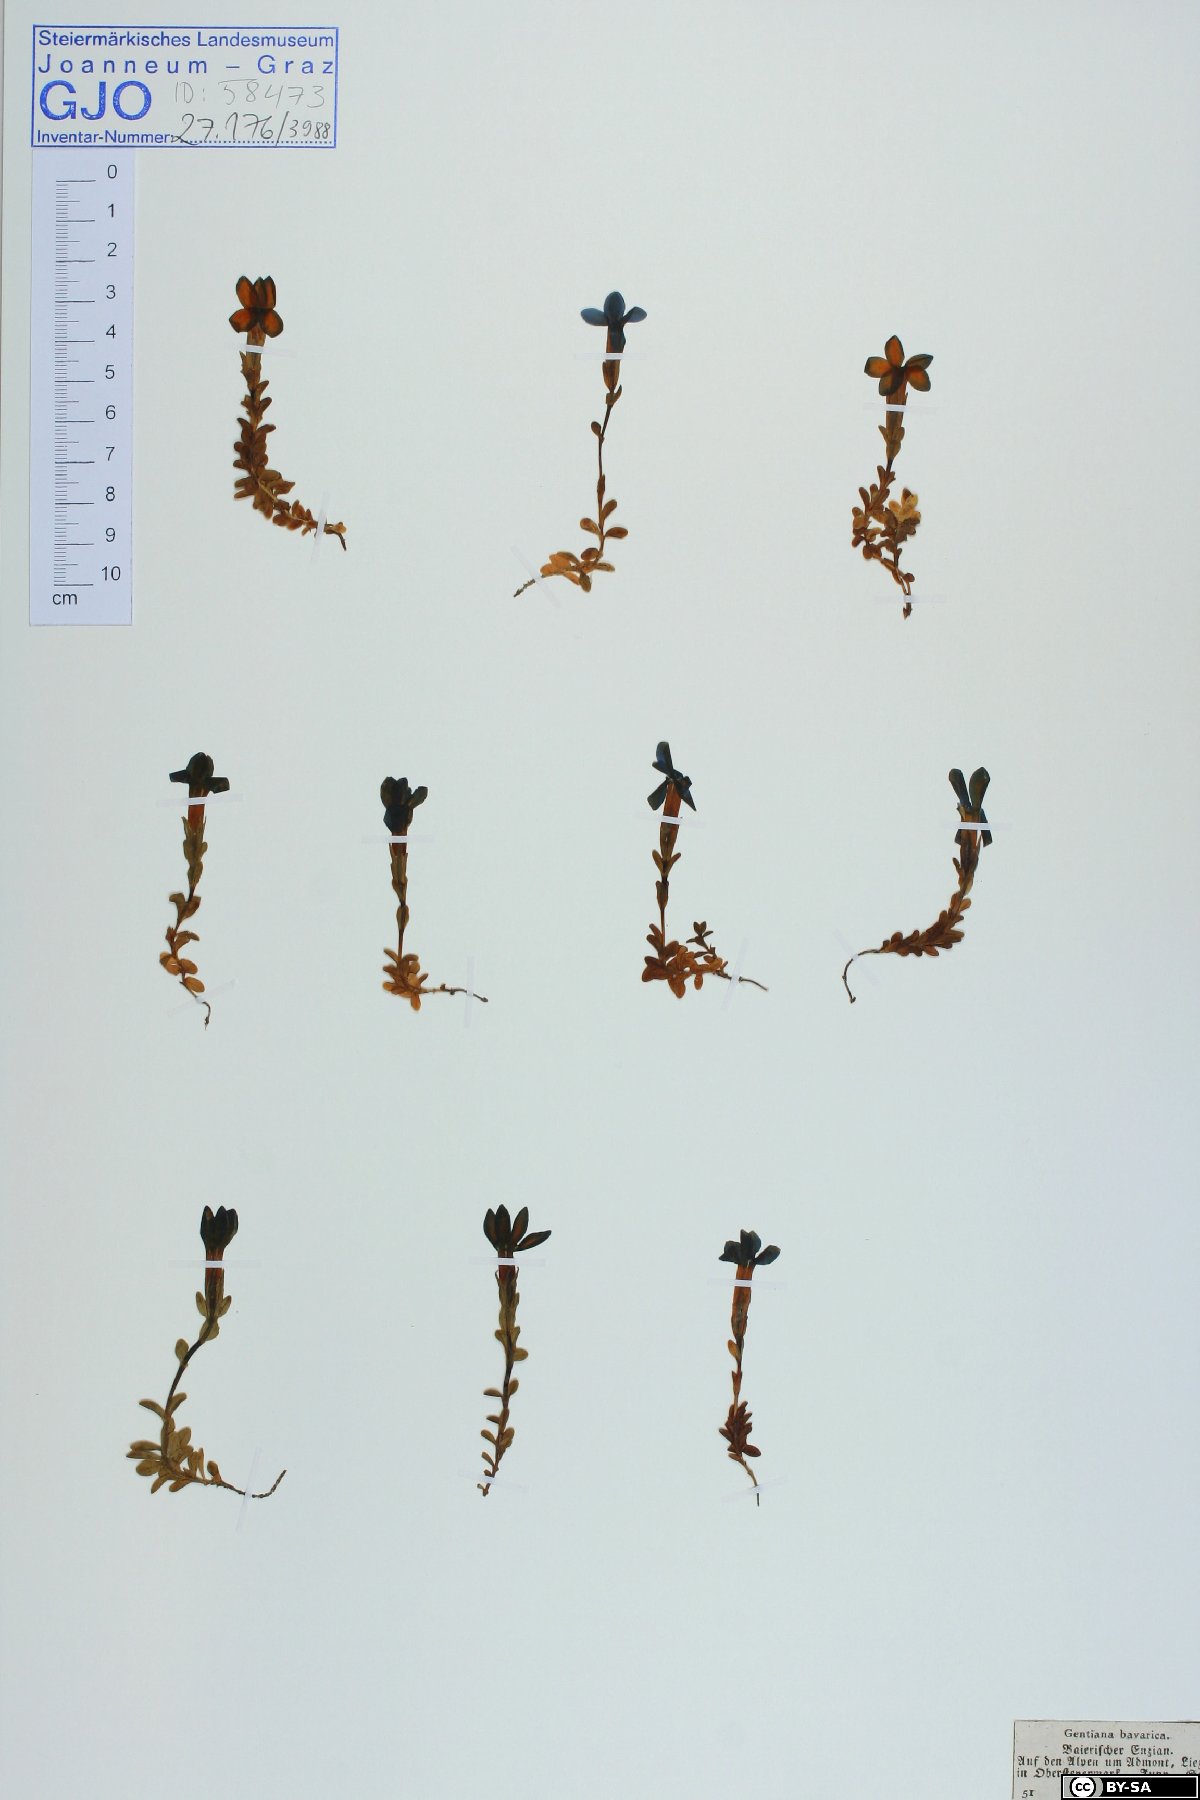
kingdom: Plantae
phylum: Tracheophyta
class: Magnoliopsida
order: Gentianales
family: Gentianaceae
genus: Gentiana
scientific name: Gentiana bavarica
